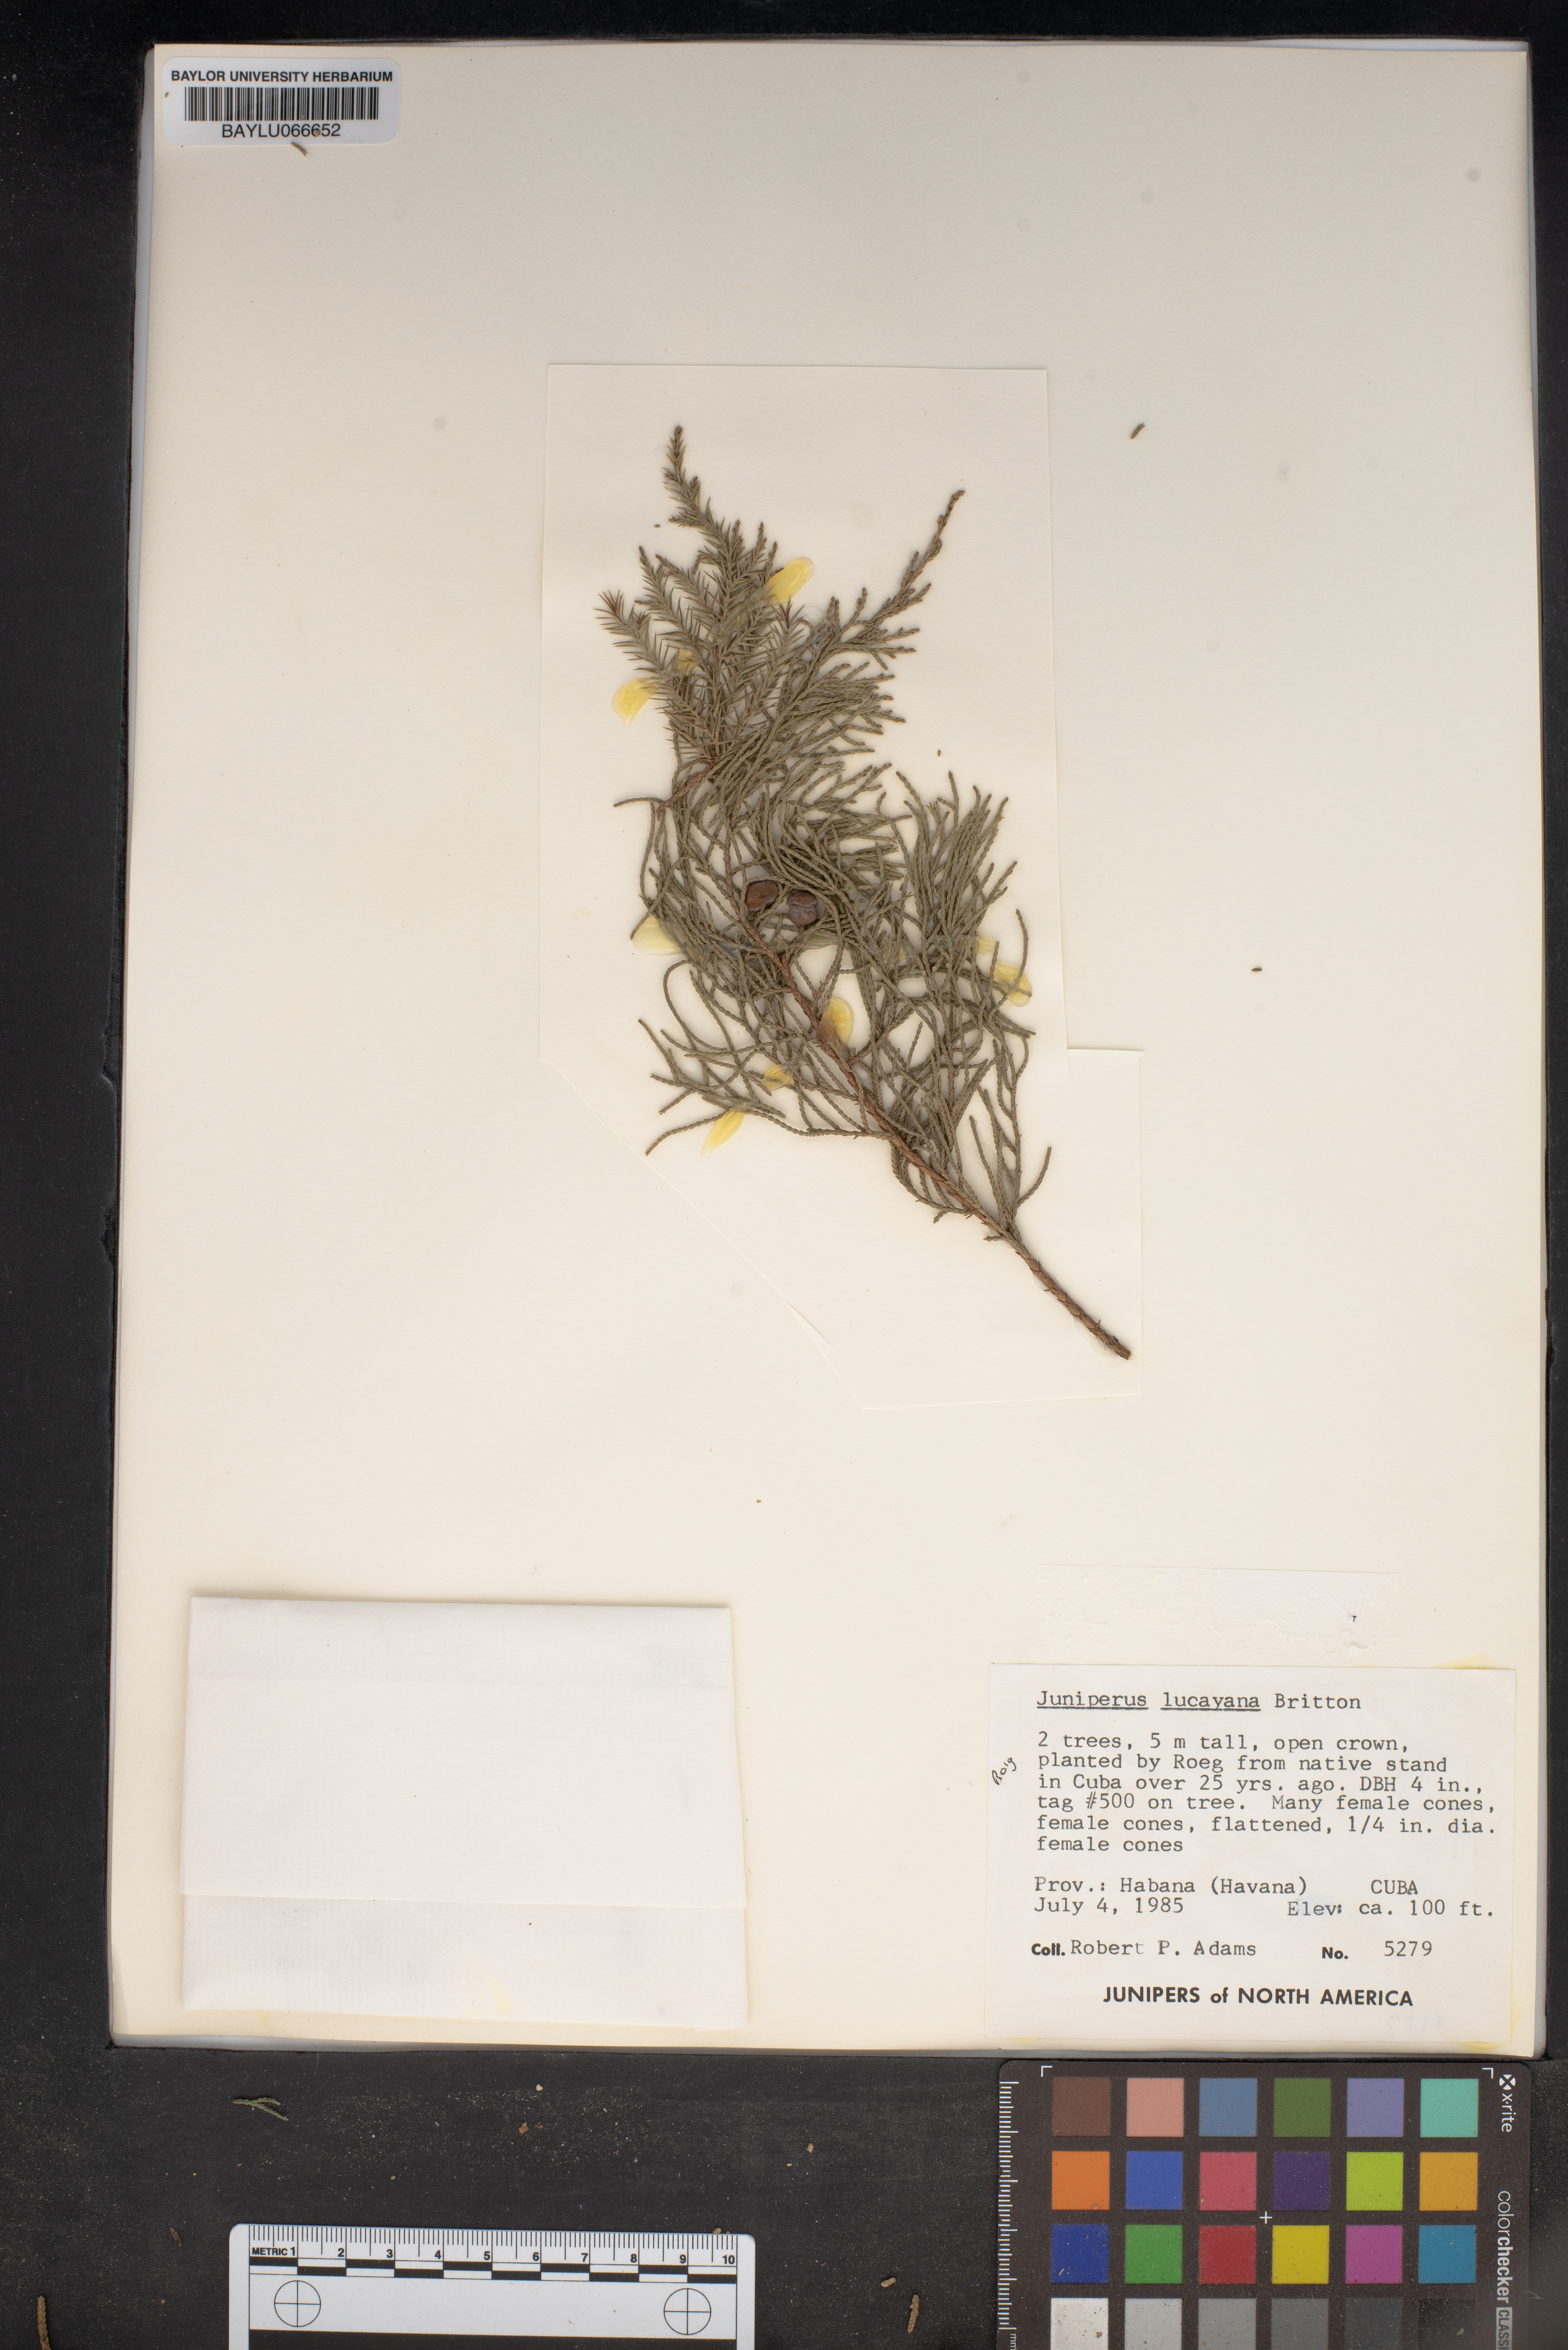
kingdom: Plantae
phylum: Tracheophyta
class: Pinopsida
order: Pinales
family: Cupressaceae
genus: Juniperus
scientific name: Juniperus barbadensis
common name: West indies juniper
